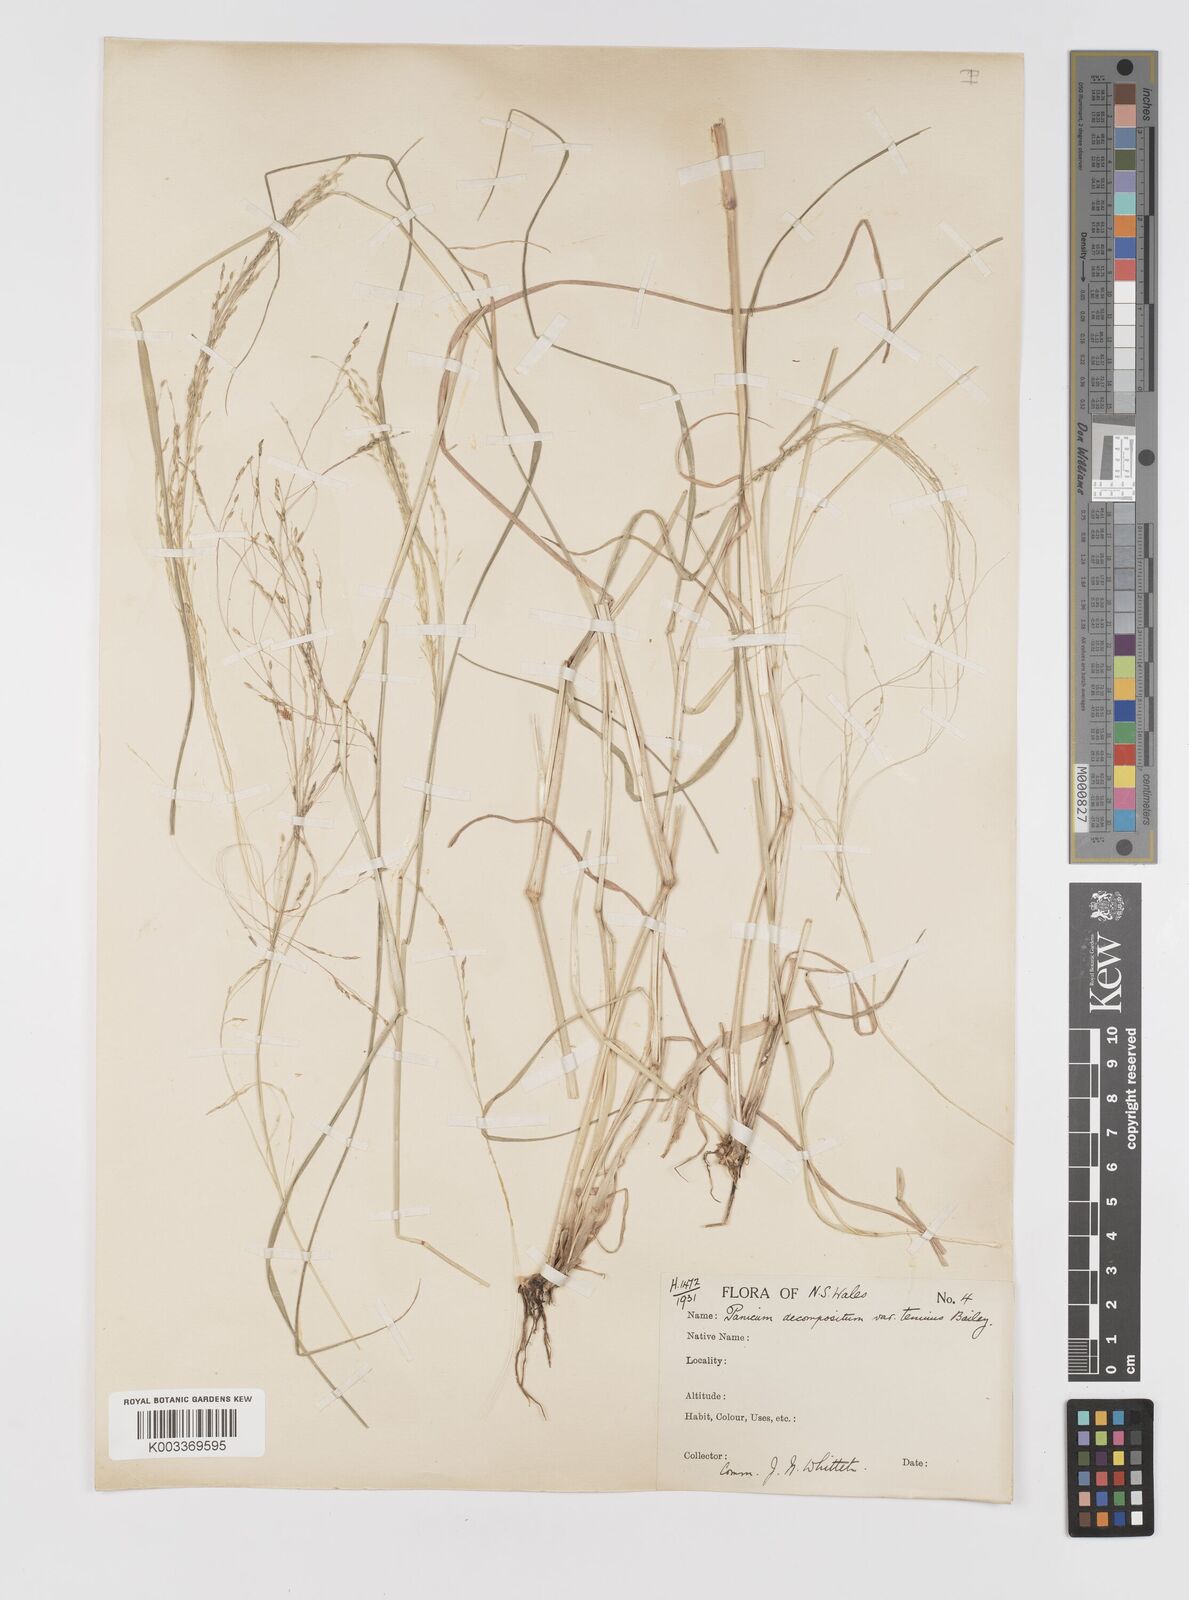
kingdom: Plantae
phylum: Tracheophyta
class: Liliopsida
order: Poales
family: Poaceae
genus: Panicum
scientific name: Panicum decompositum
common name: Australian millet
